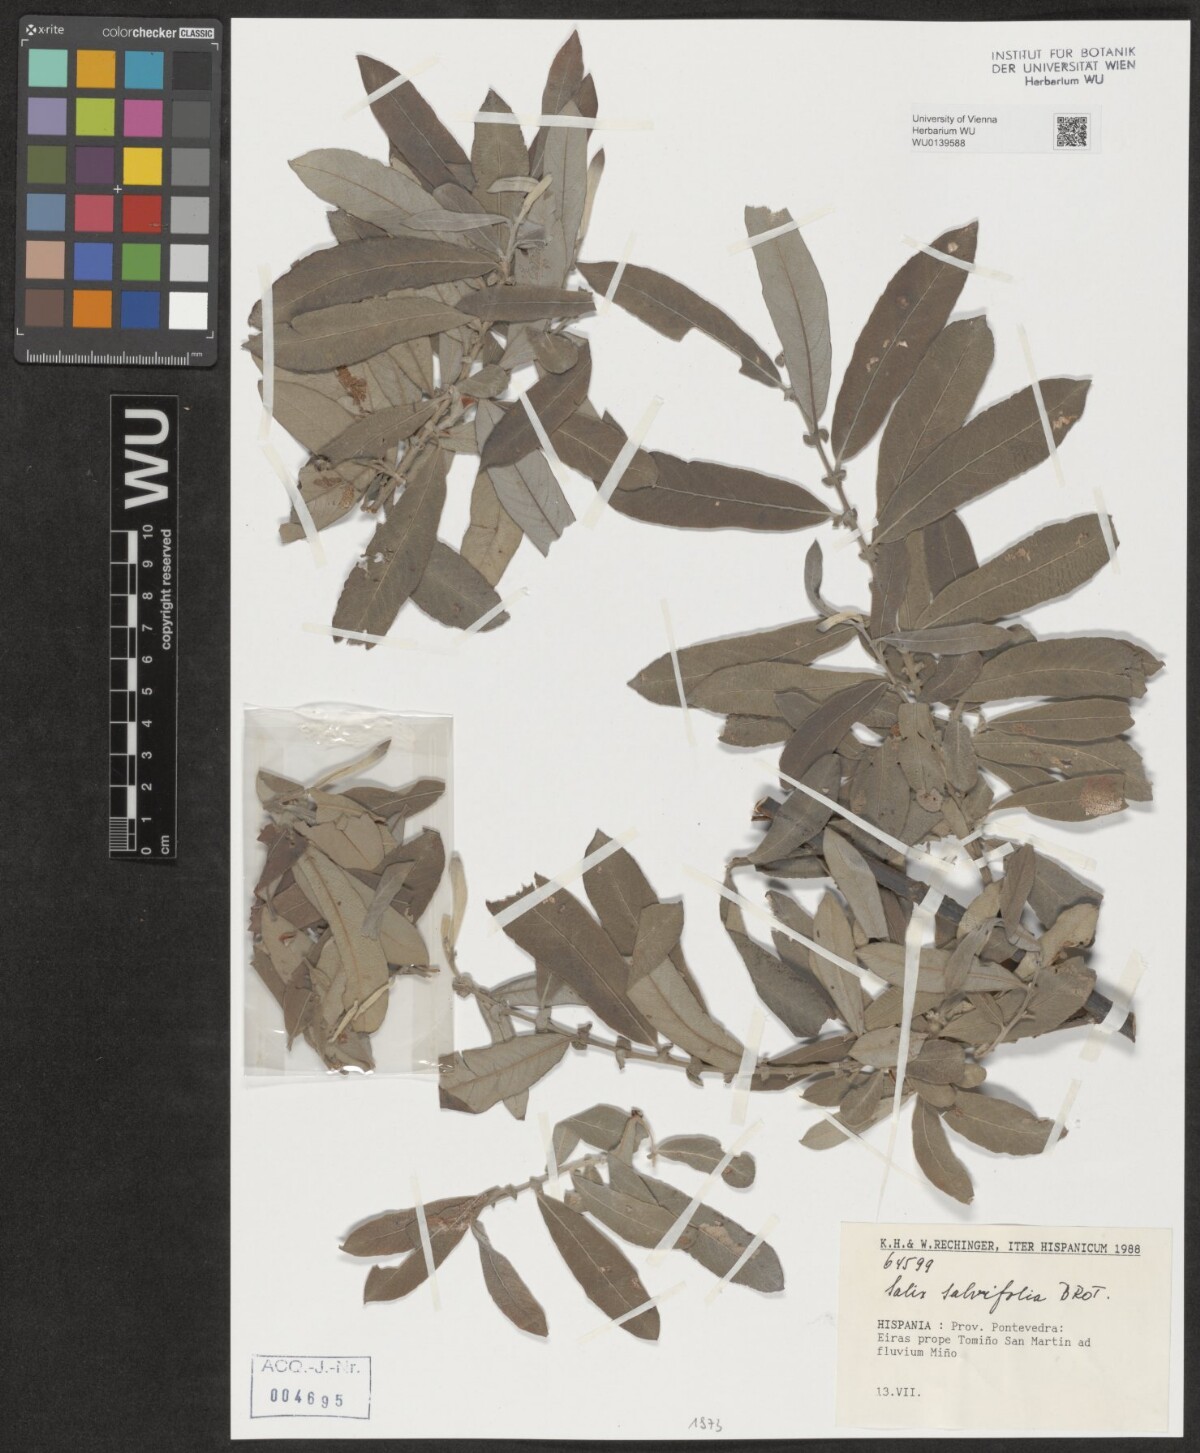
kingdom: Plantae
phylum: Tracheophyta
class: Magnoliopsida
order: Malpighiales
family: Salicaceae
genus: Salix
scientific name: Salix salviifolia
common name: Salvia-leaf willow
